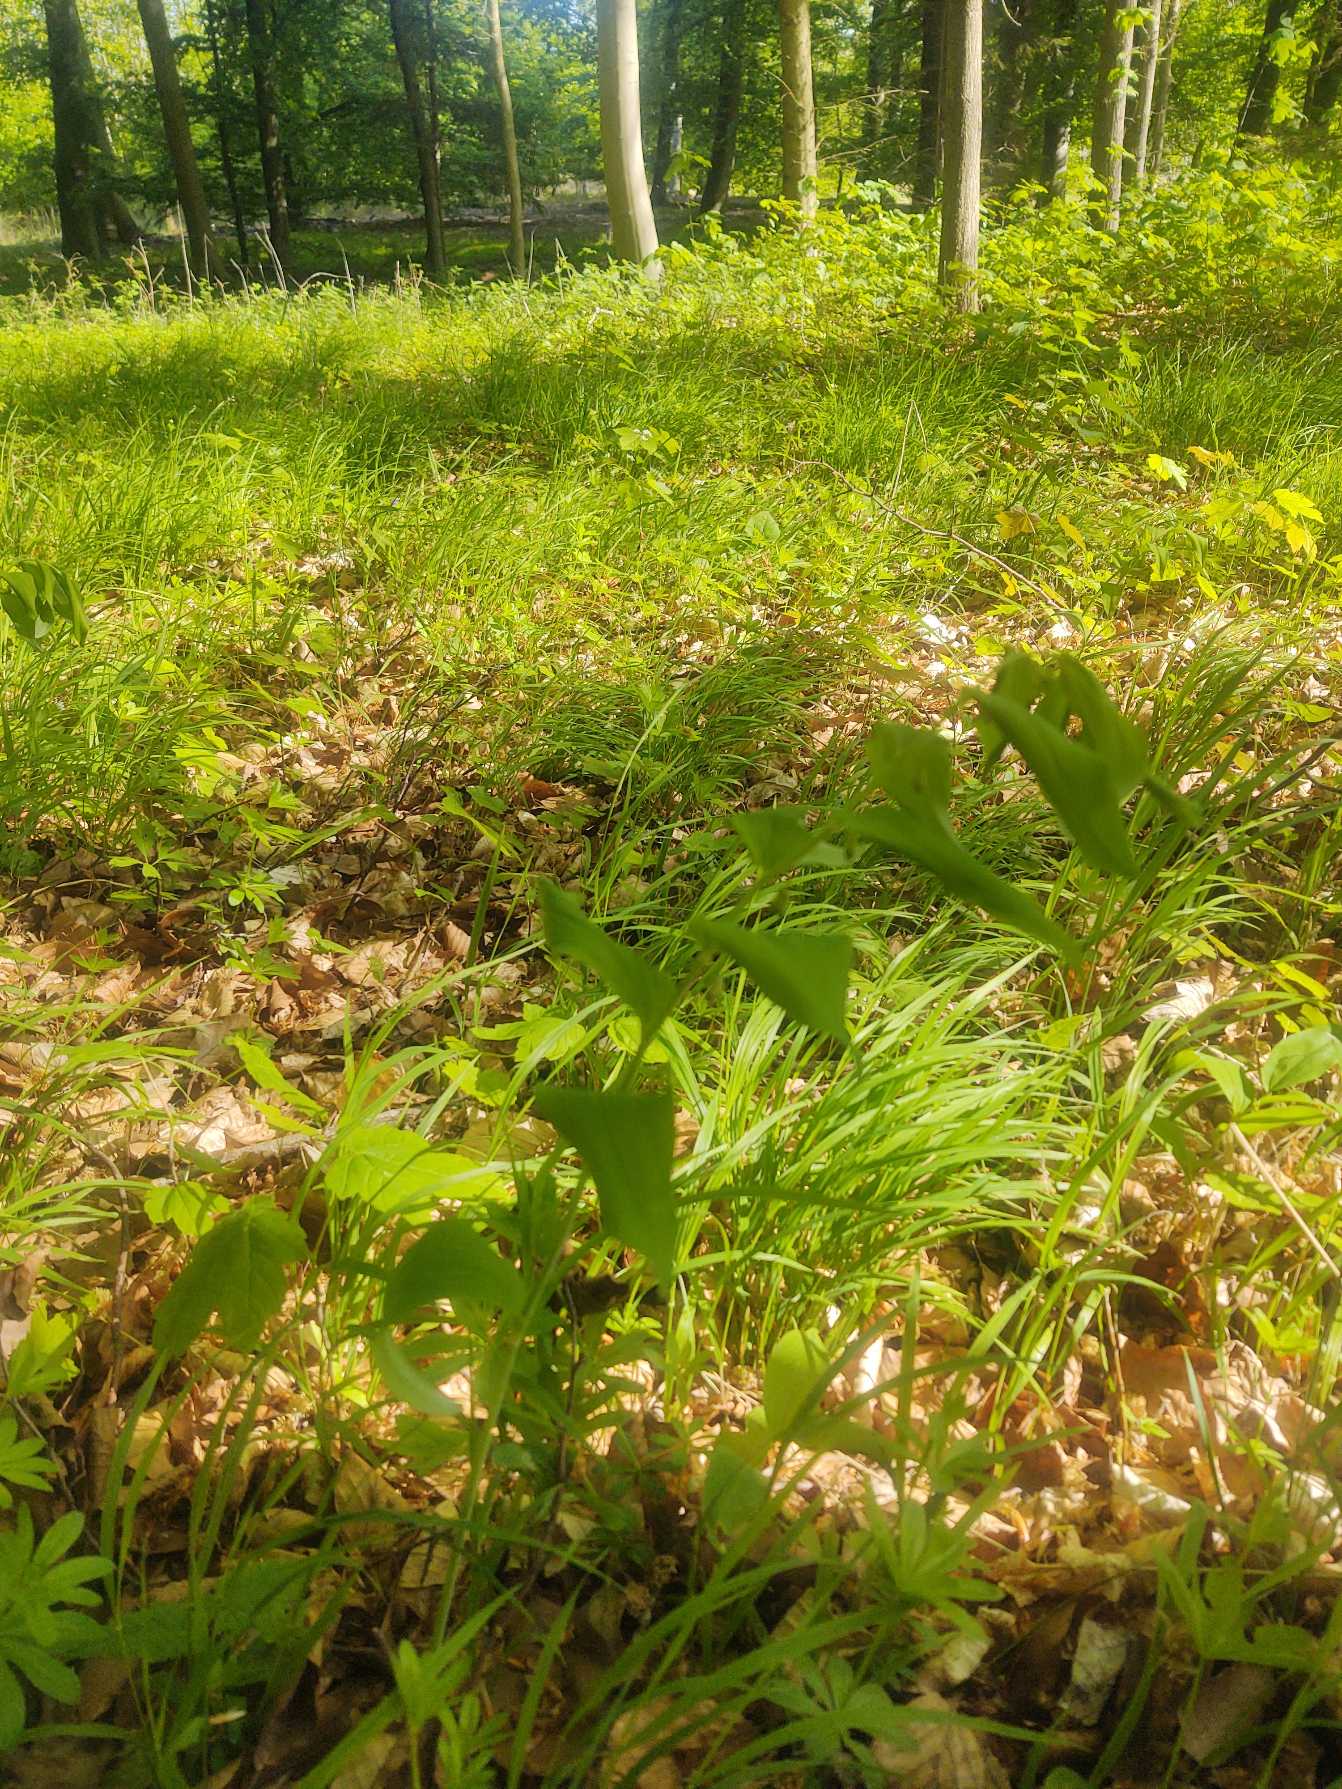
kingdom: Plantae
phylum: Tracheophyta
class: Liliopsida
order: Asparagales
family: Asparagaceae
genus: Polygonatum
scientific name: Polygonatum multiflorum
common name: Stor konval
